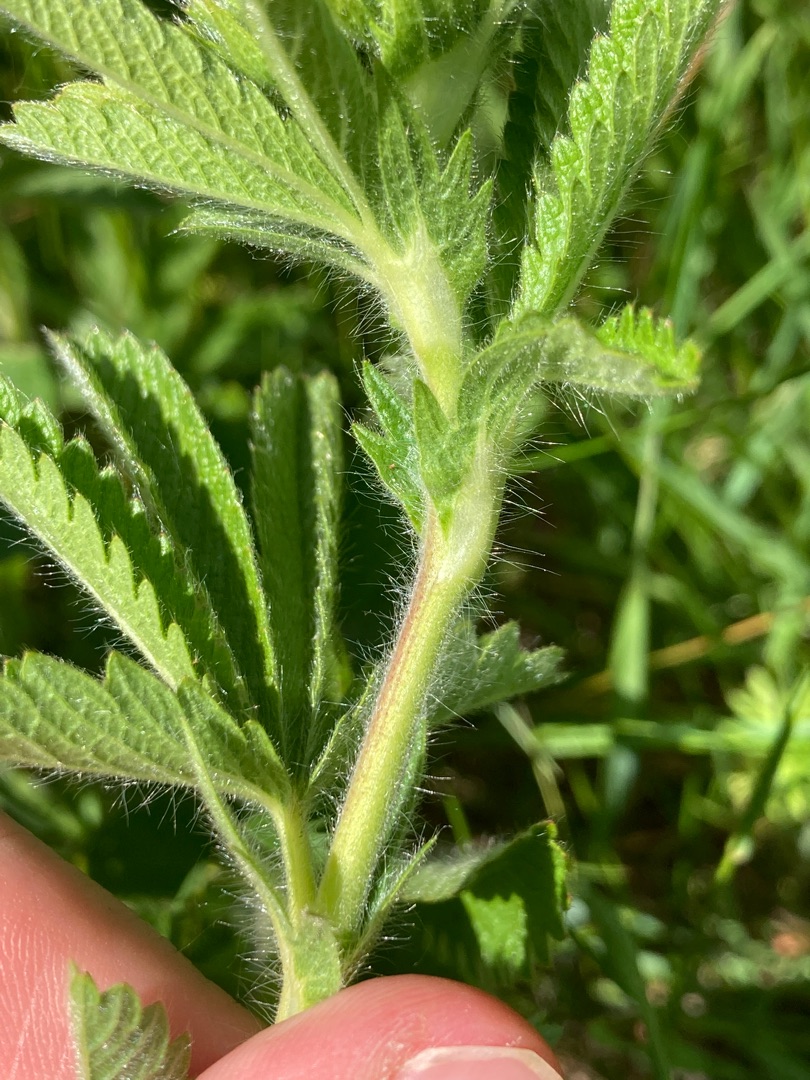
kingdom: Plantae
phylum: Tracheophyta
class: Magnoliopsida
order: Rosales
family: Rosaceae
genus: Potentilla
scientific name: Potentilla recta
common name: Rank potentil
